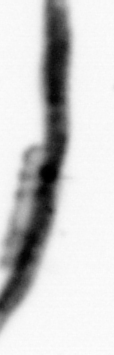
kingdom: Chromista
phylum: Ochrophyta
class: Bacillariophyceae
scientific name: Bacillariophyceae
